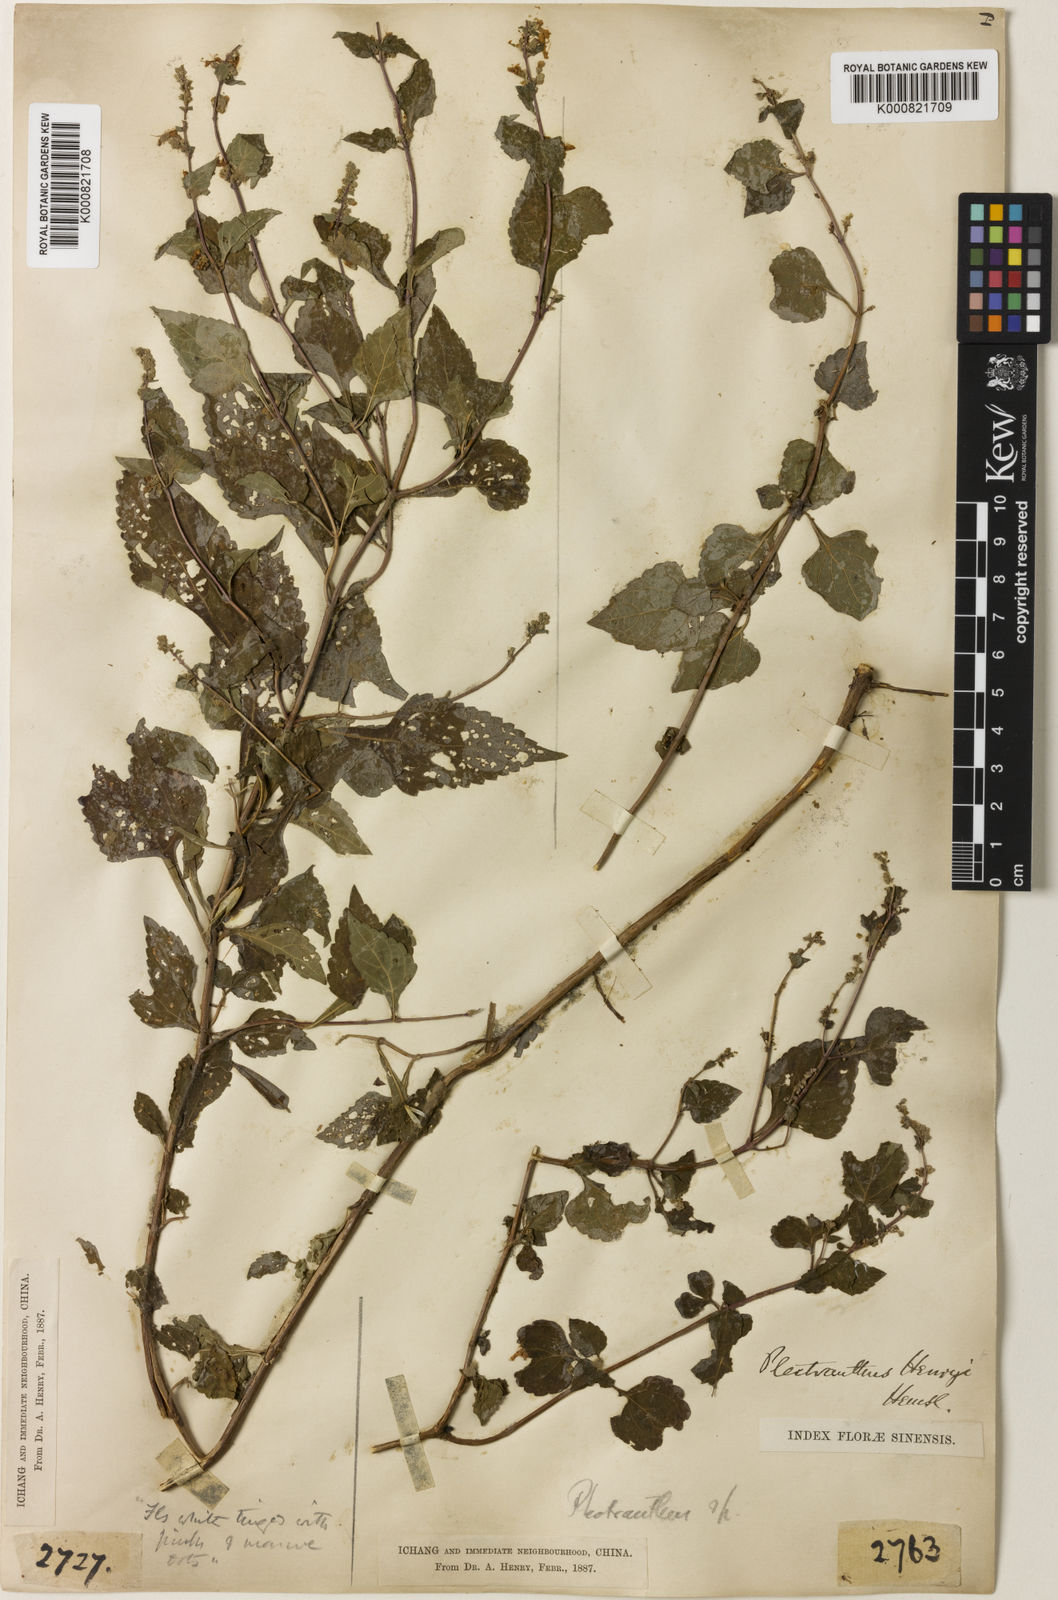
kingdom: Plantae
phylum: Tracheophyta
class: Magnoliopsida
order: Lamiales
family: Lamiaceae
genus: Isodon
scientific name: Isodon
